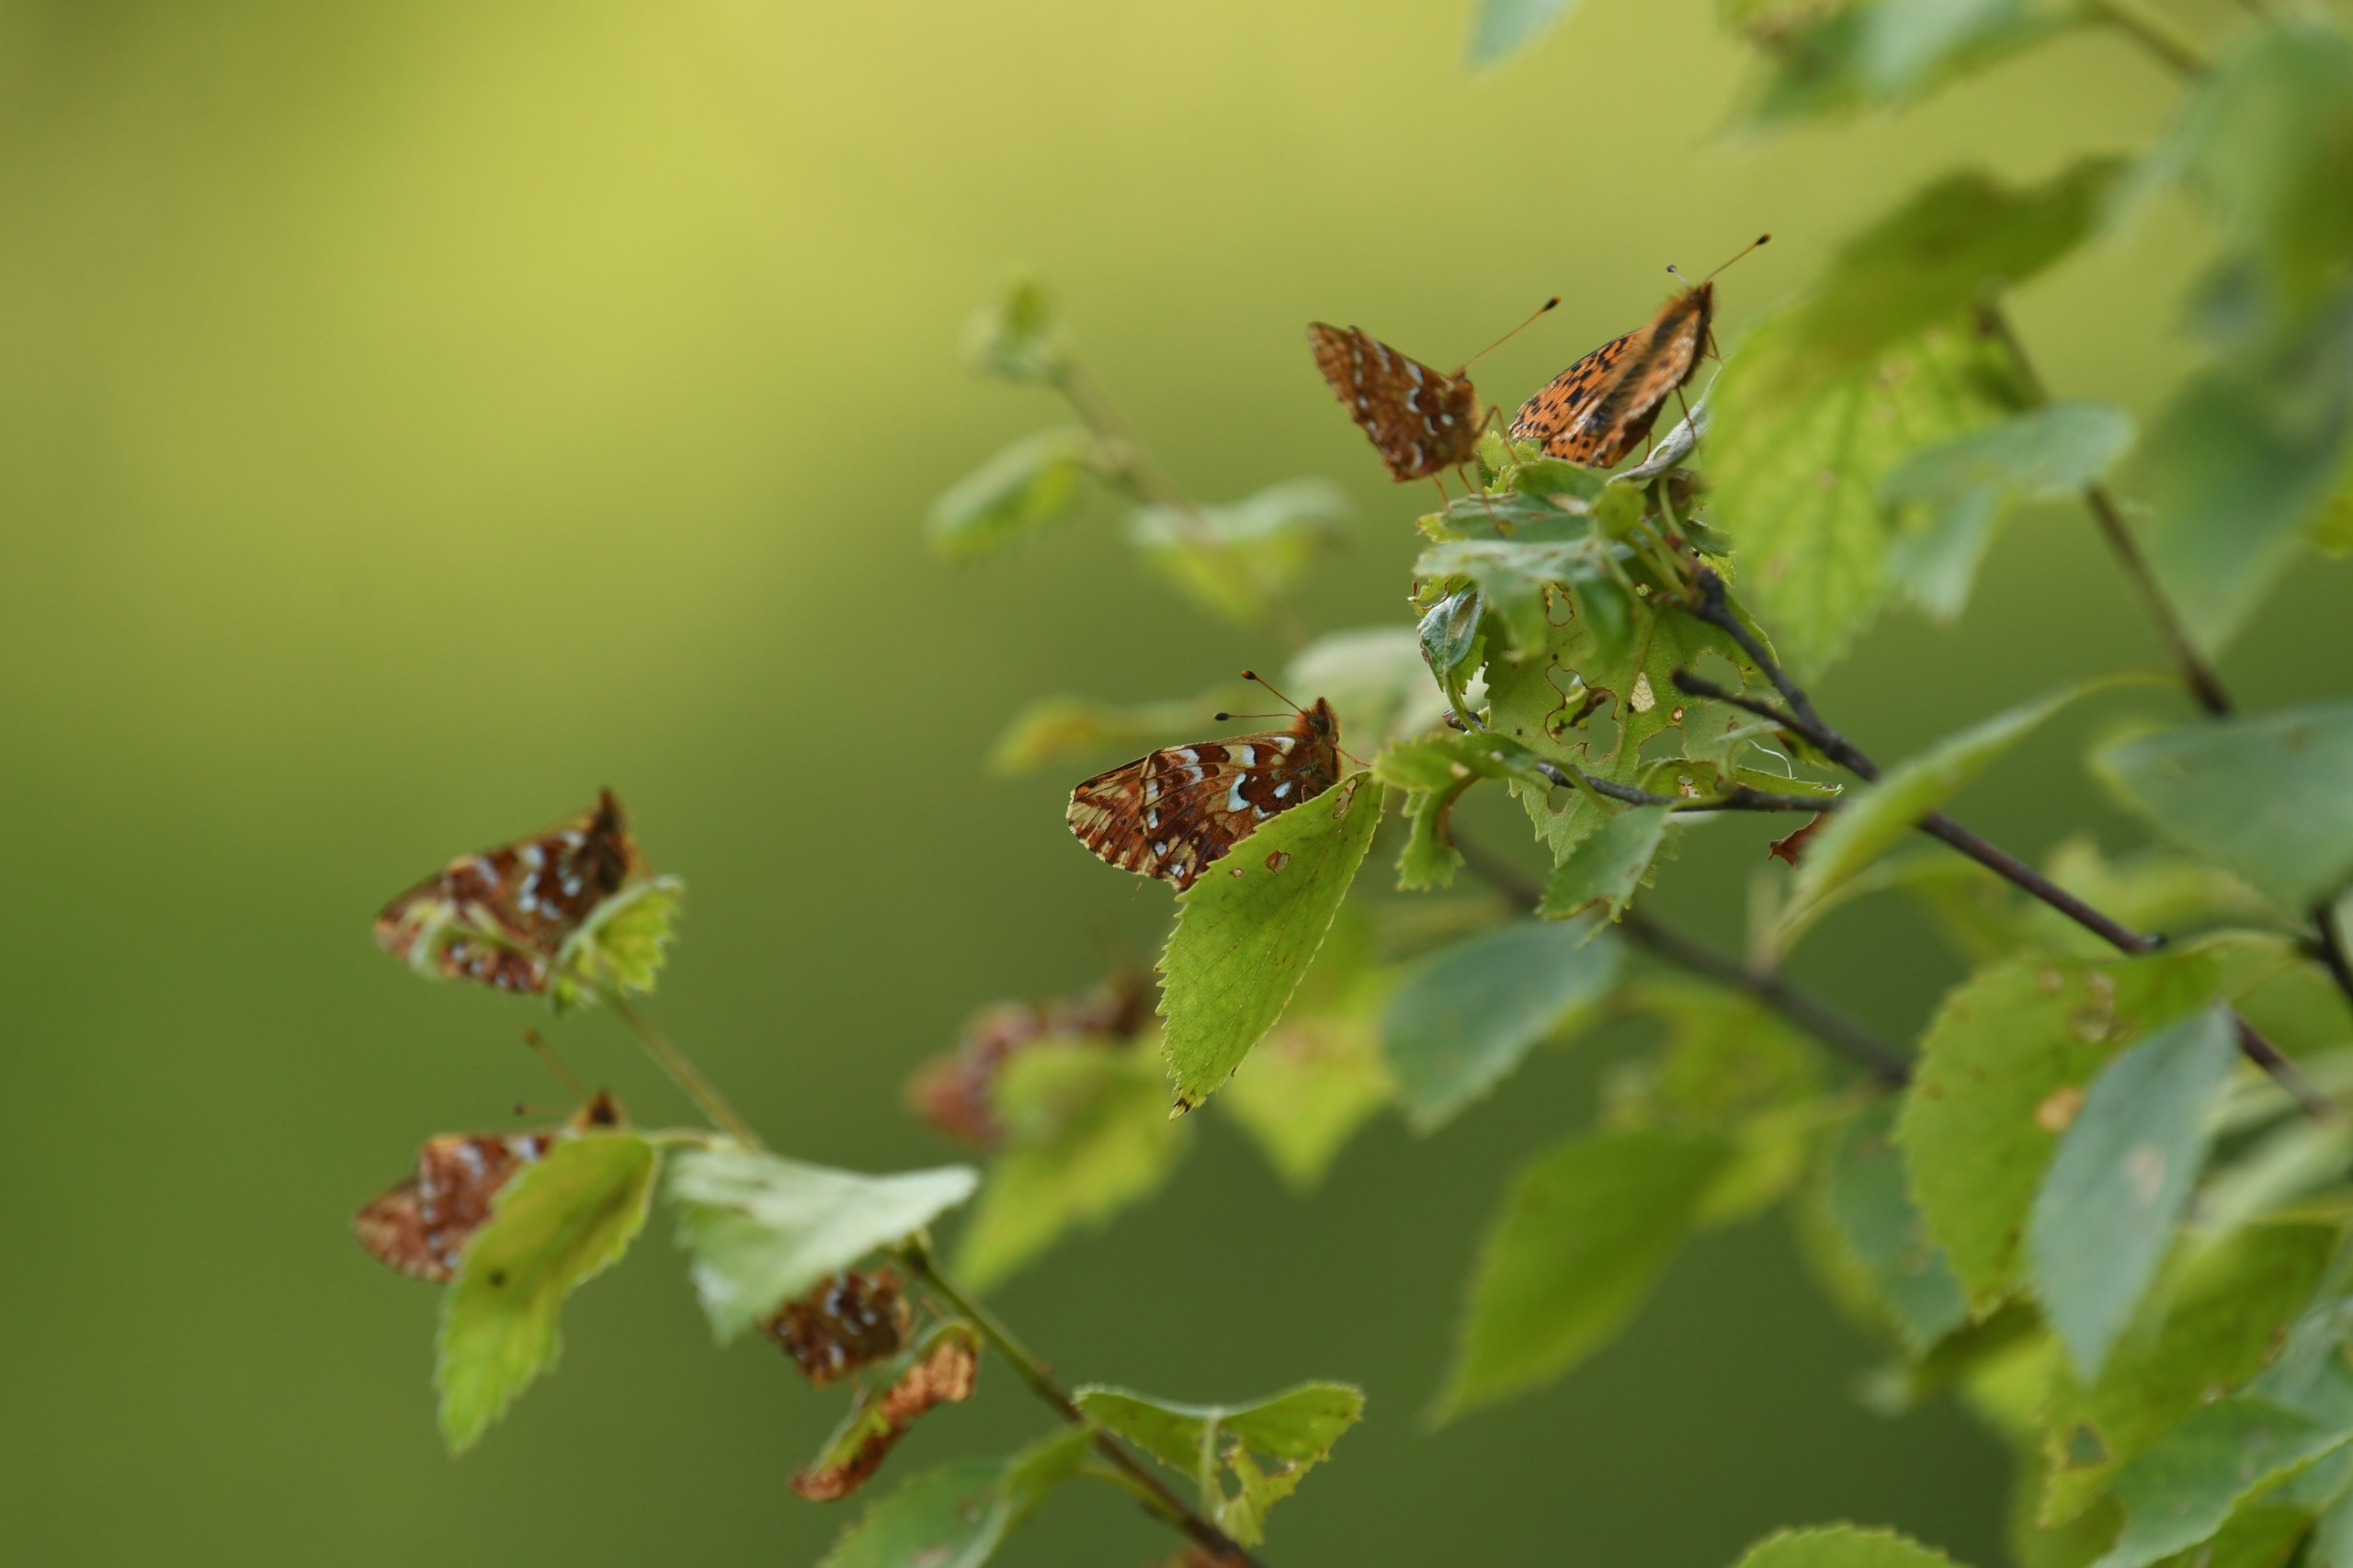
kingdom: Animalia
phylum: Arthropoda
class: Insecta
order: Lepidoptera
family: Nymphalidae
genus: Boloria
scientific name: Boloria aquilonaris
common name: Moseperlemorsommerfugl
